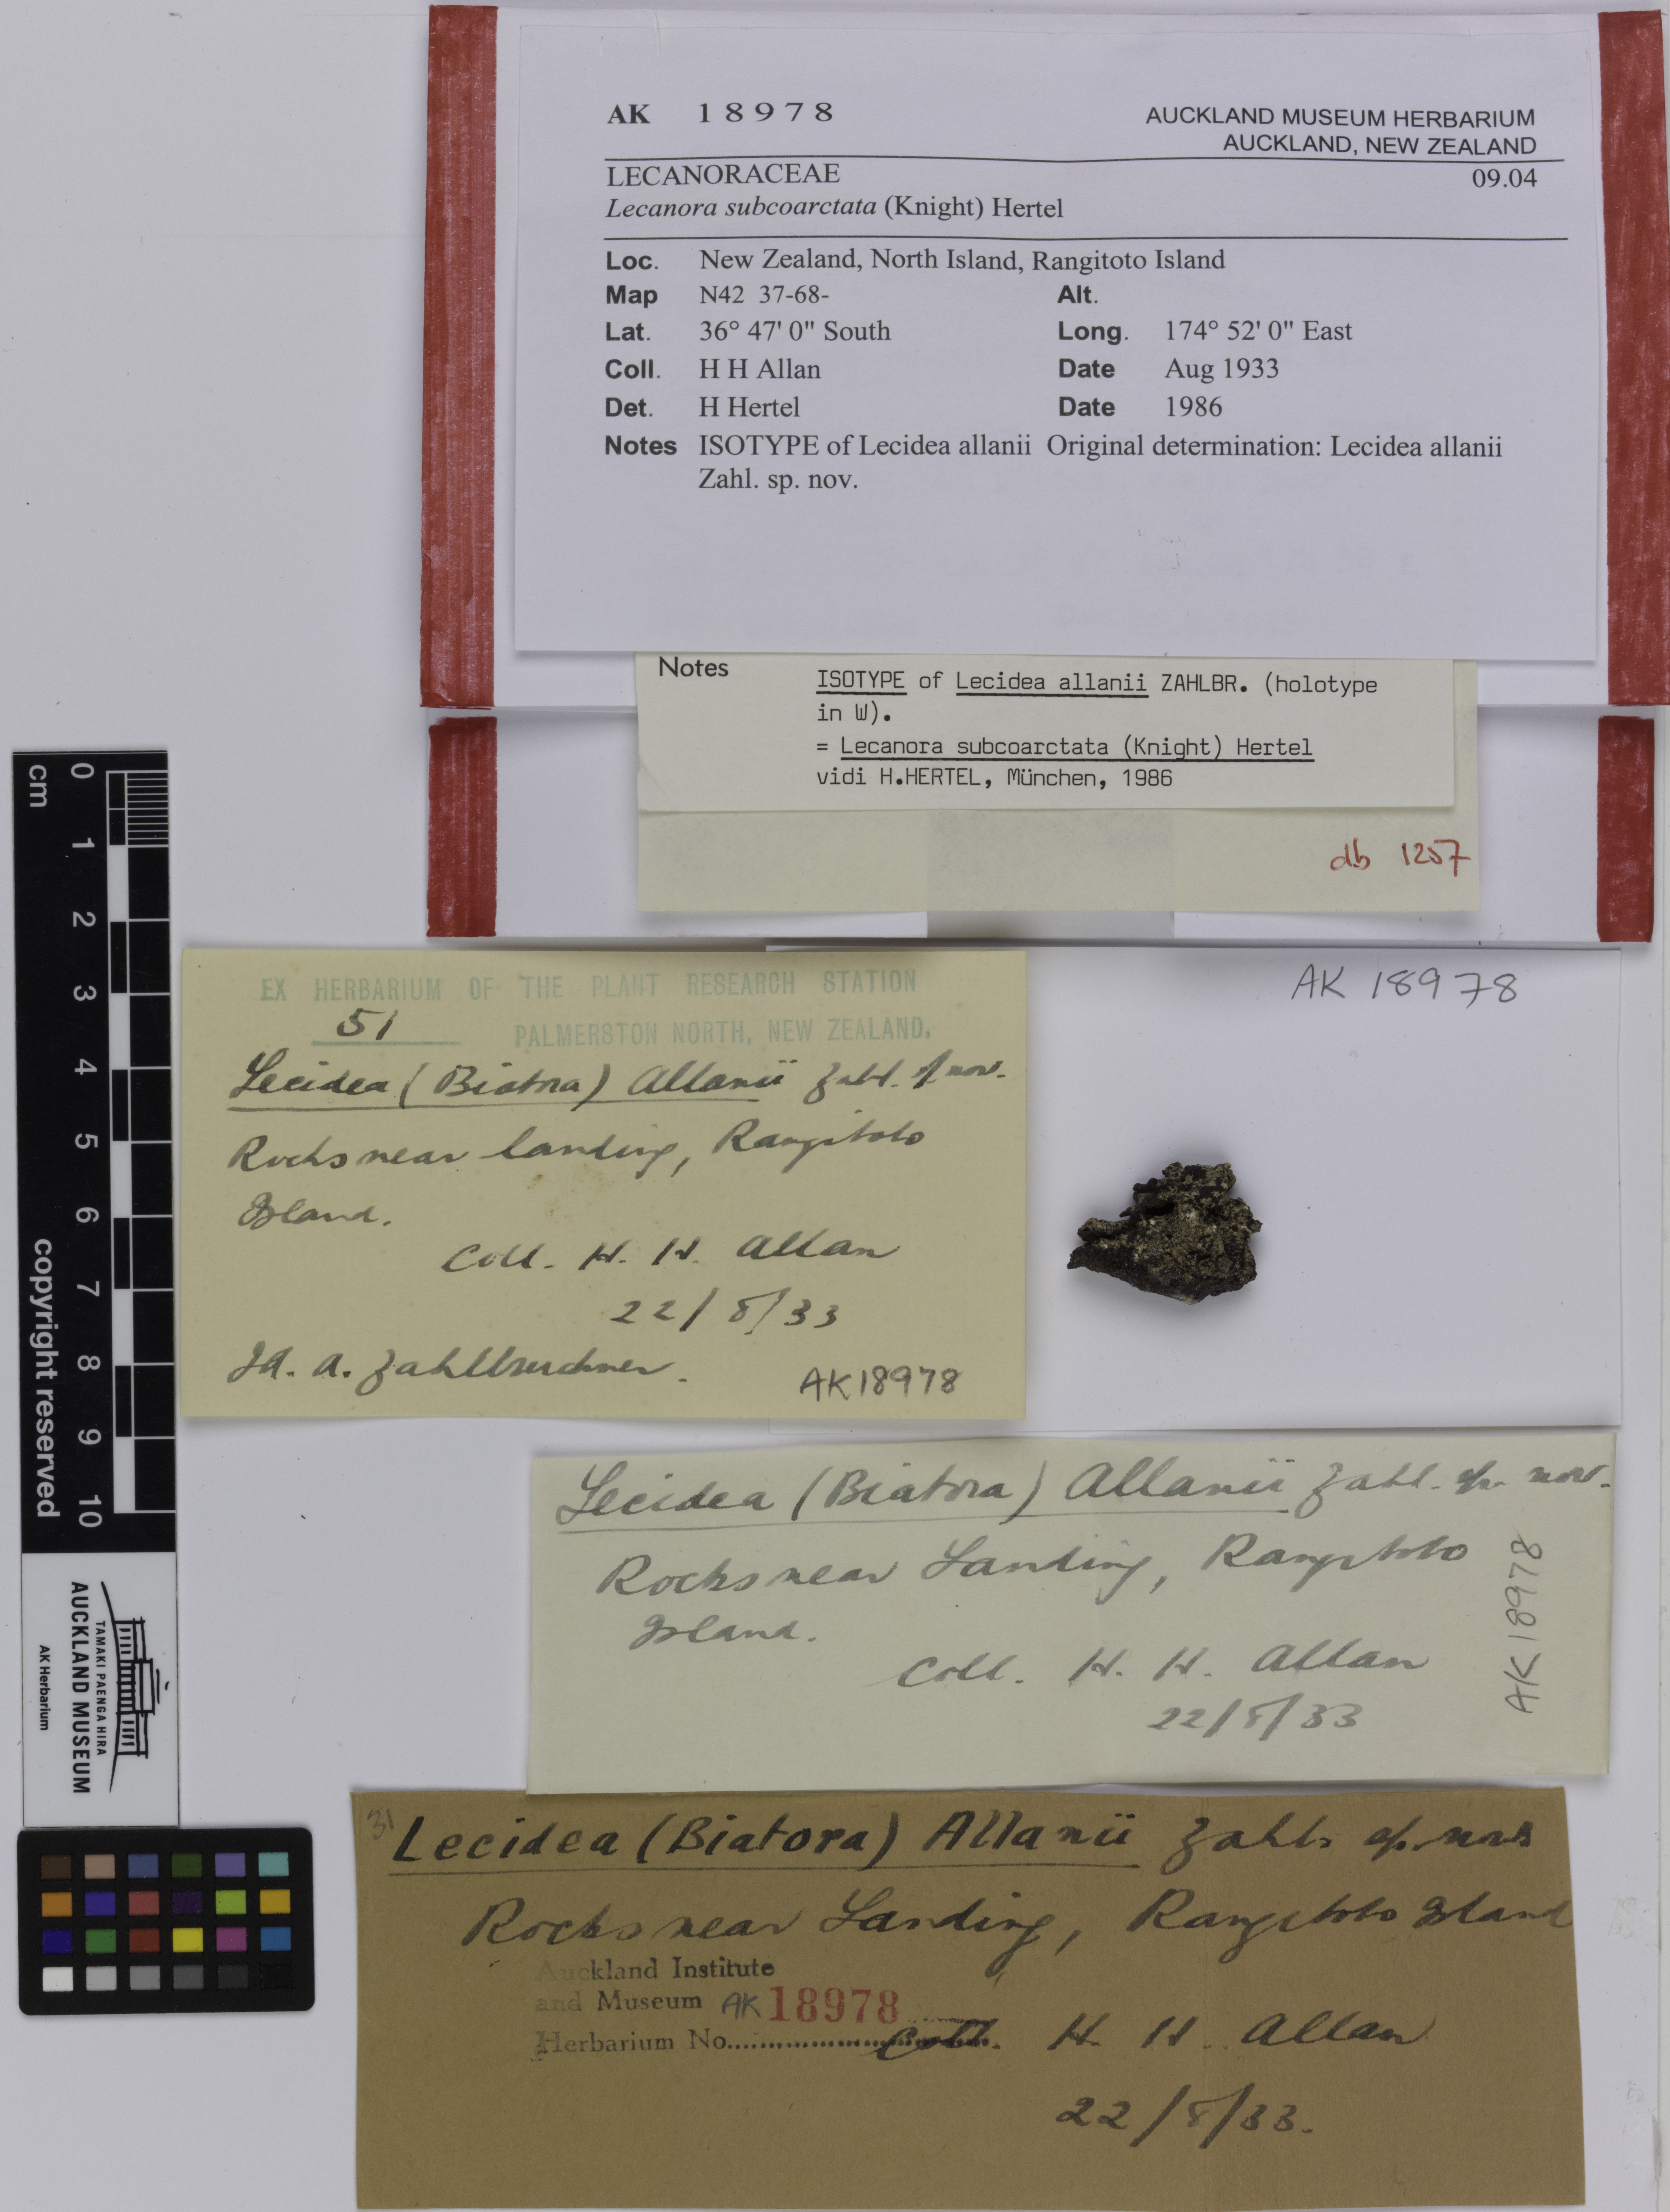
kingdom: Fungi
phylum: Ascomycota
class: Lecanoromycetes
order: Lecanorales
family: Lecanoraceae
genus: Lecanora
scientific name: Lecanora subcoarctata
